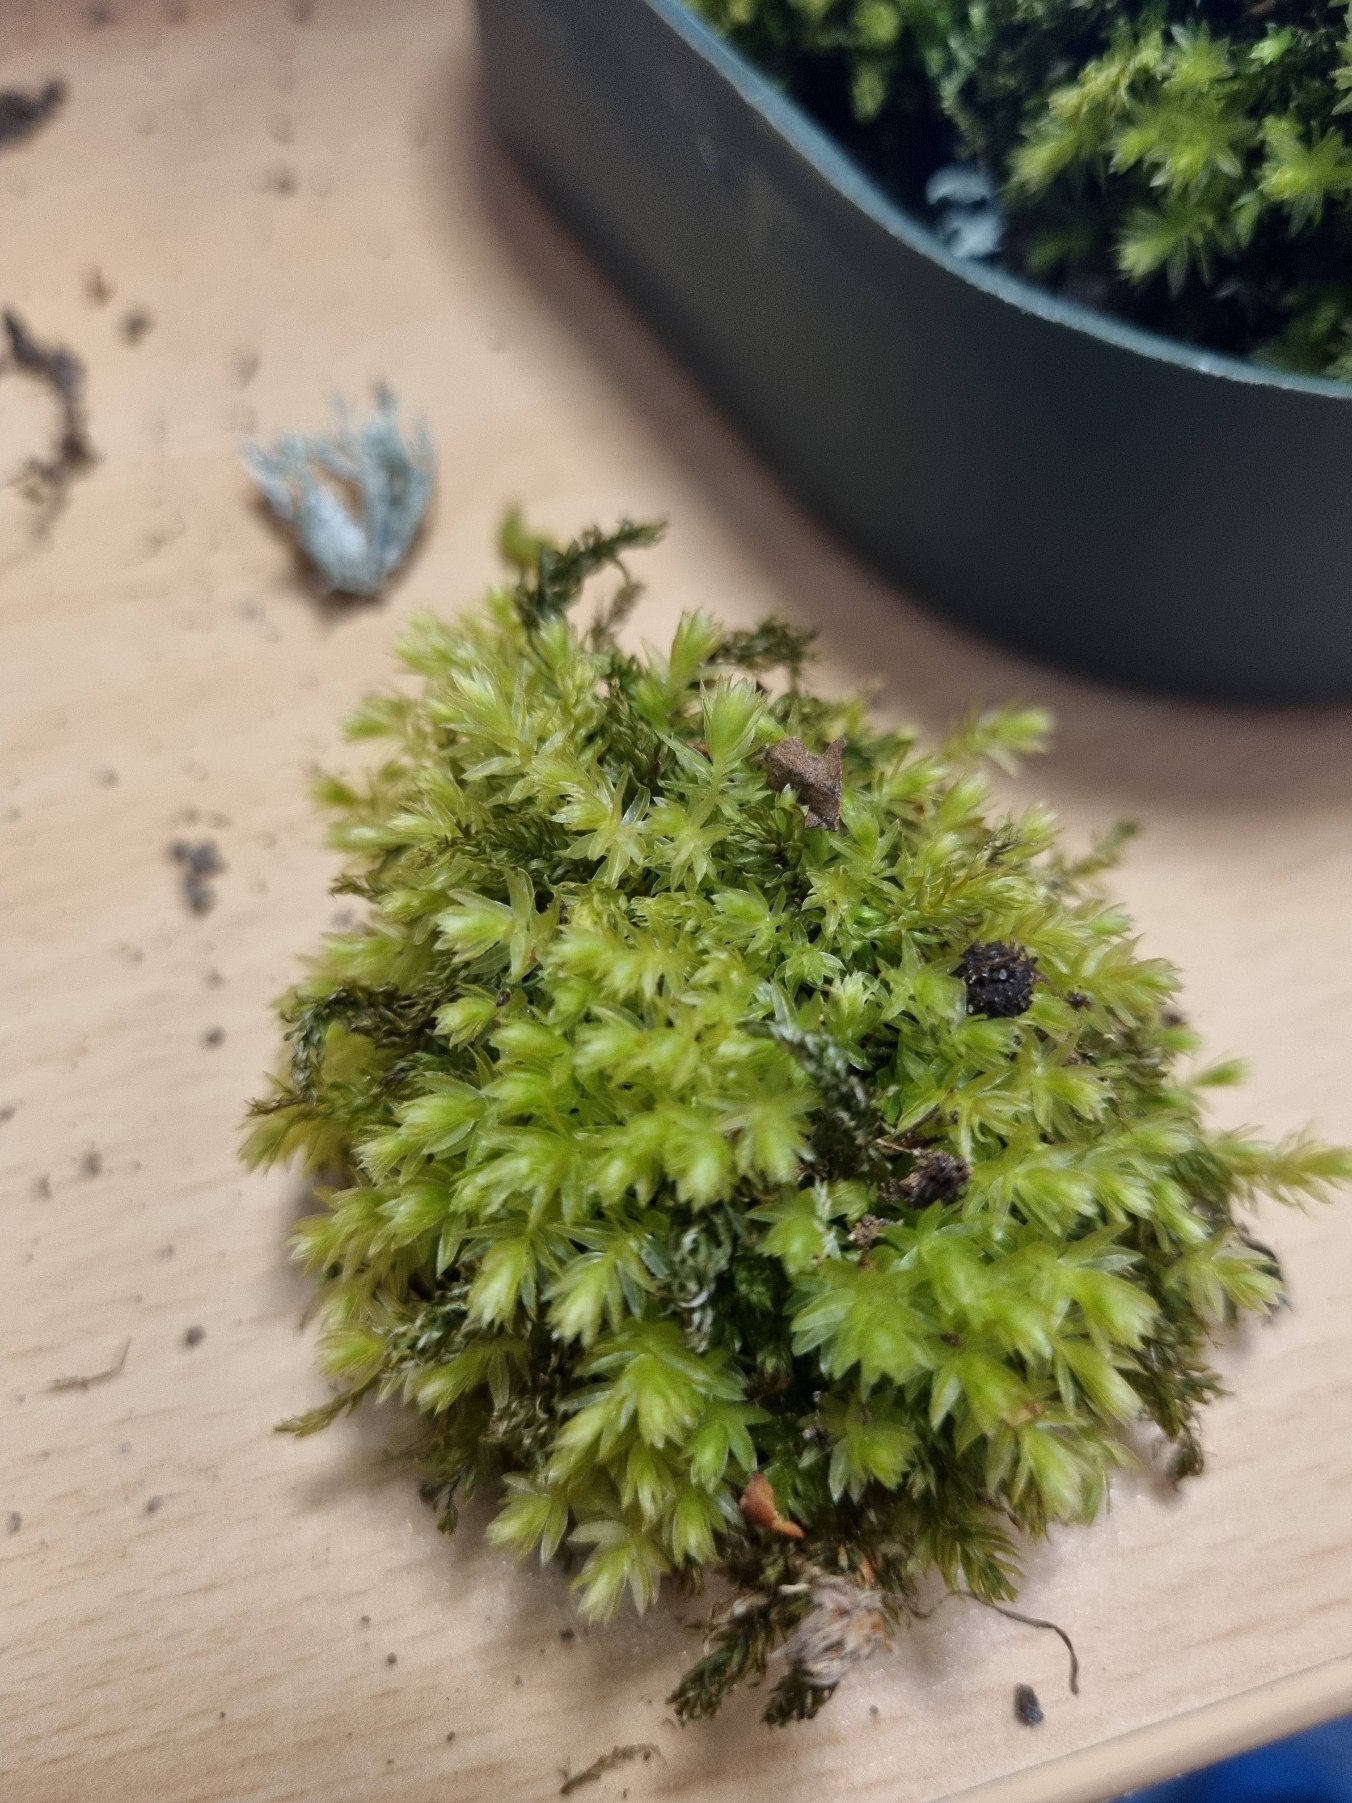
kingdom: Plantae
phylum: Bryophyta
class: Bryopsida
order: Bryales
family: Mniaceae
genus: Mnium
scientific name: Mnium hornum
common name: Brunfiltet stjernemos
